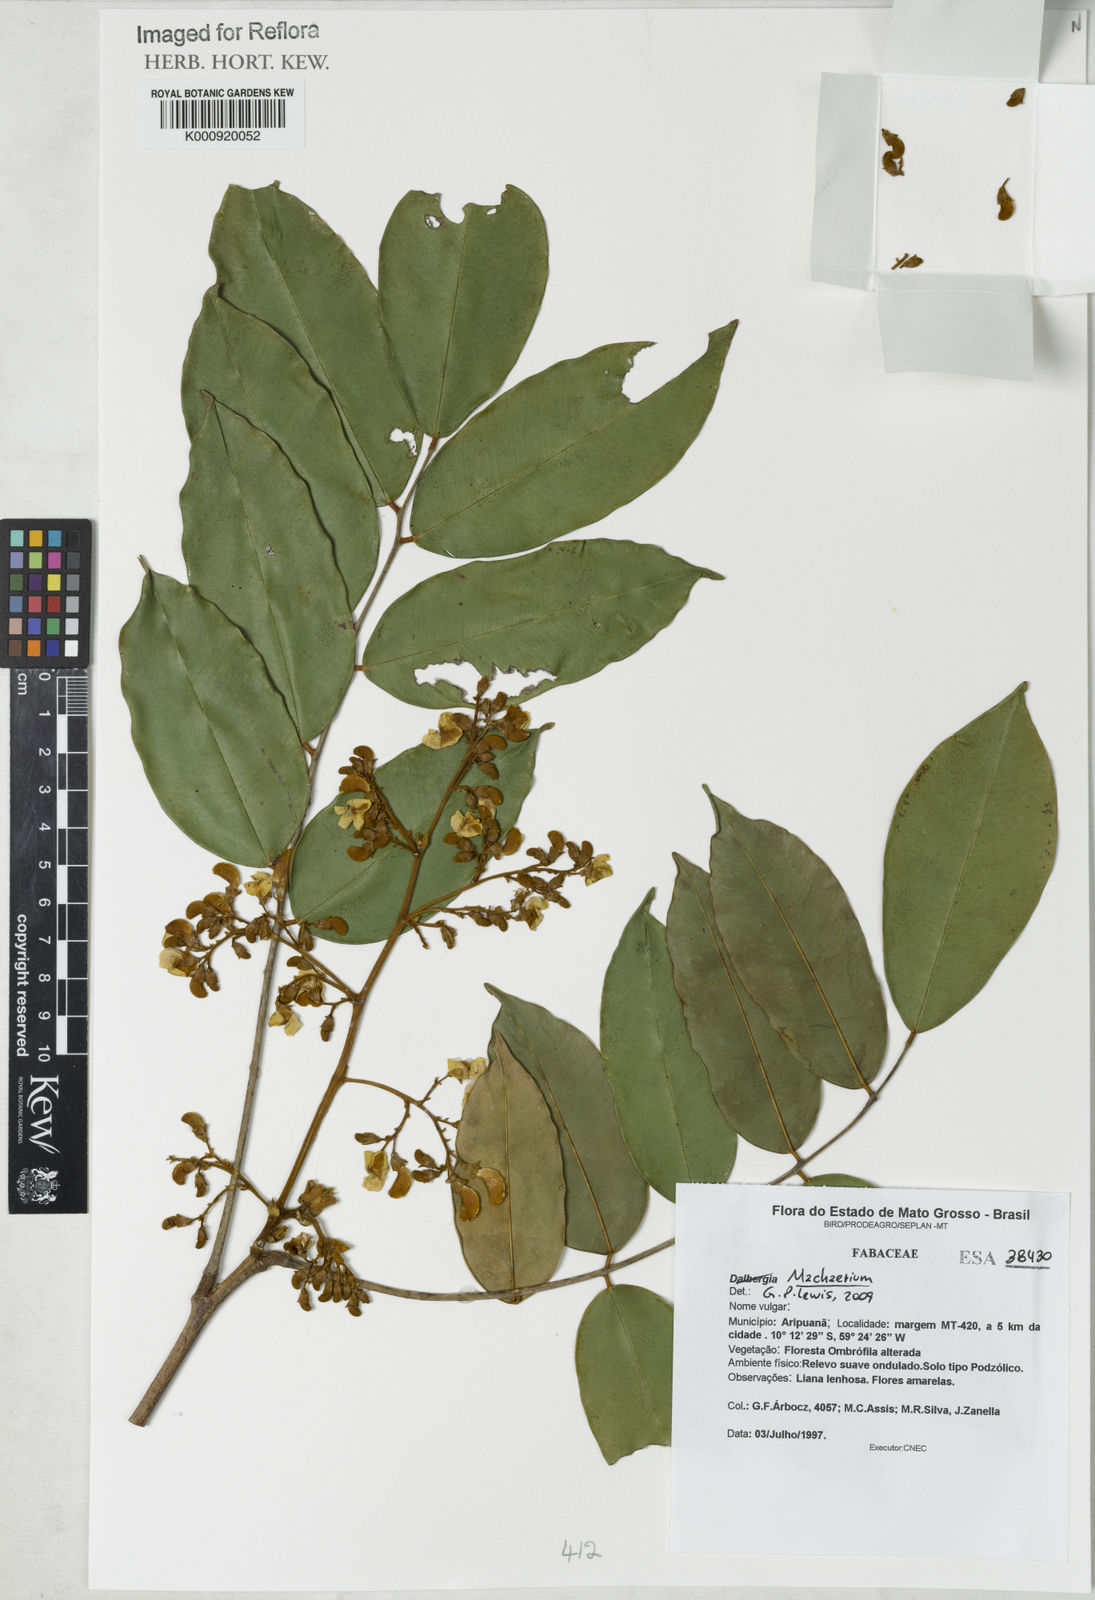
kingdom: Plantae
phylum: Tracheophyta
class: Magnoliopsida
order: Fabales
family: Fabaceae
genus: Machaerium
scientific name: Machaerium
